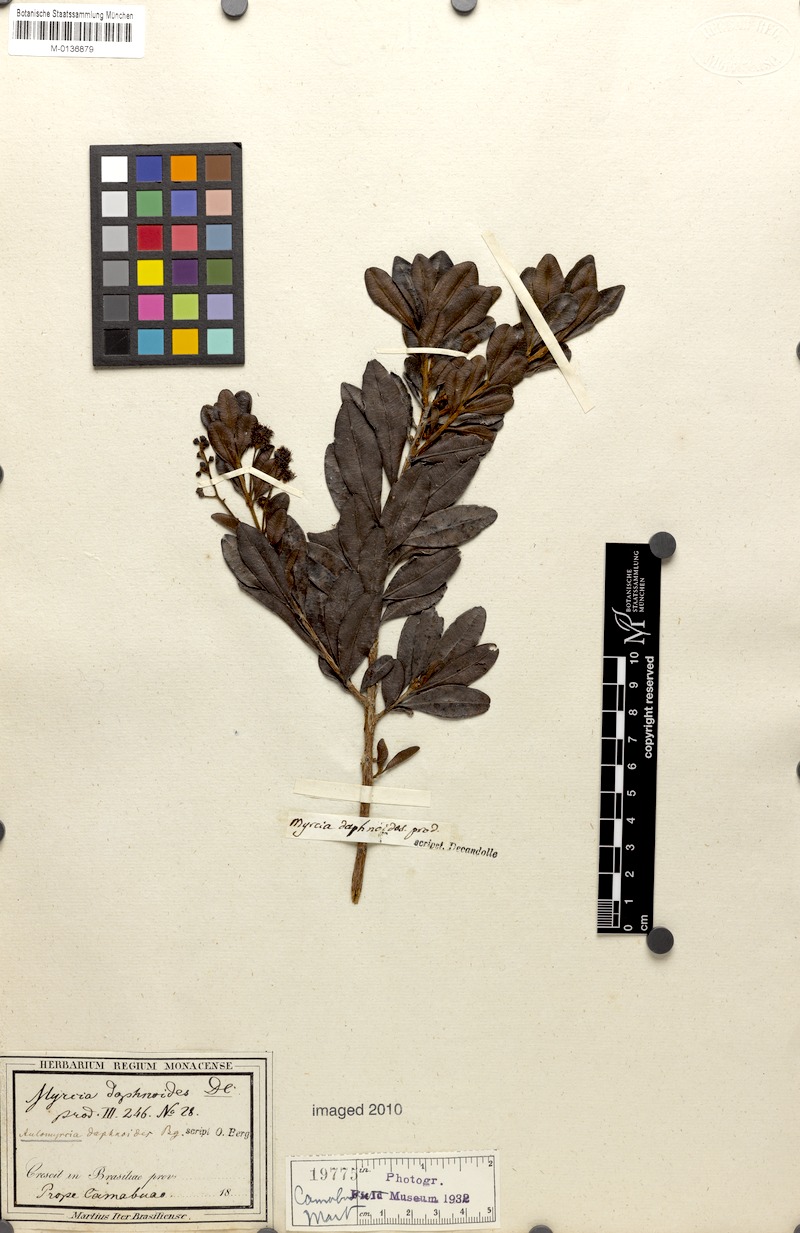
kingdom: Plantae
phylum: Tracheophyta
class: Magnoliopsida
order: Myrtales
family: Myrtaceae
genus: Myrcia
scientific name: Myrcia guianensis
